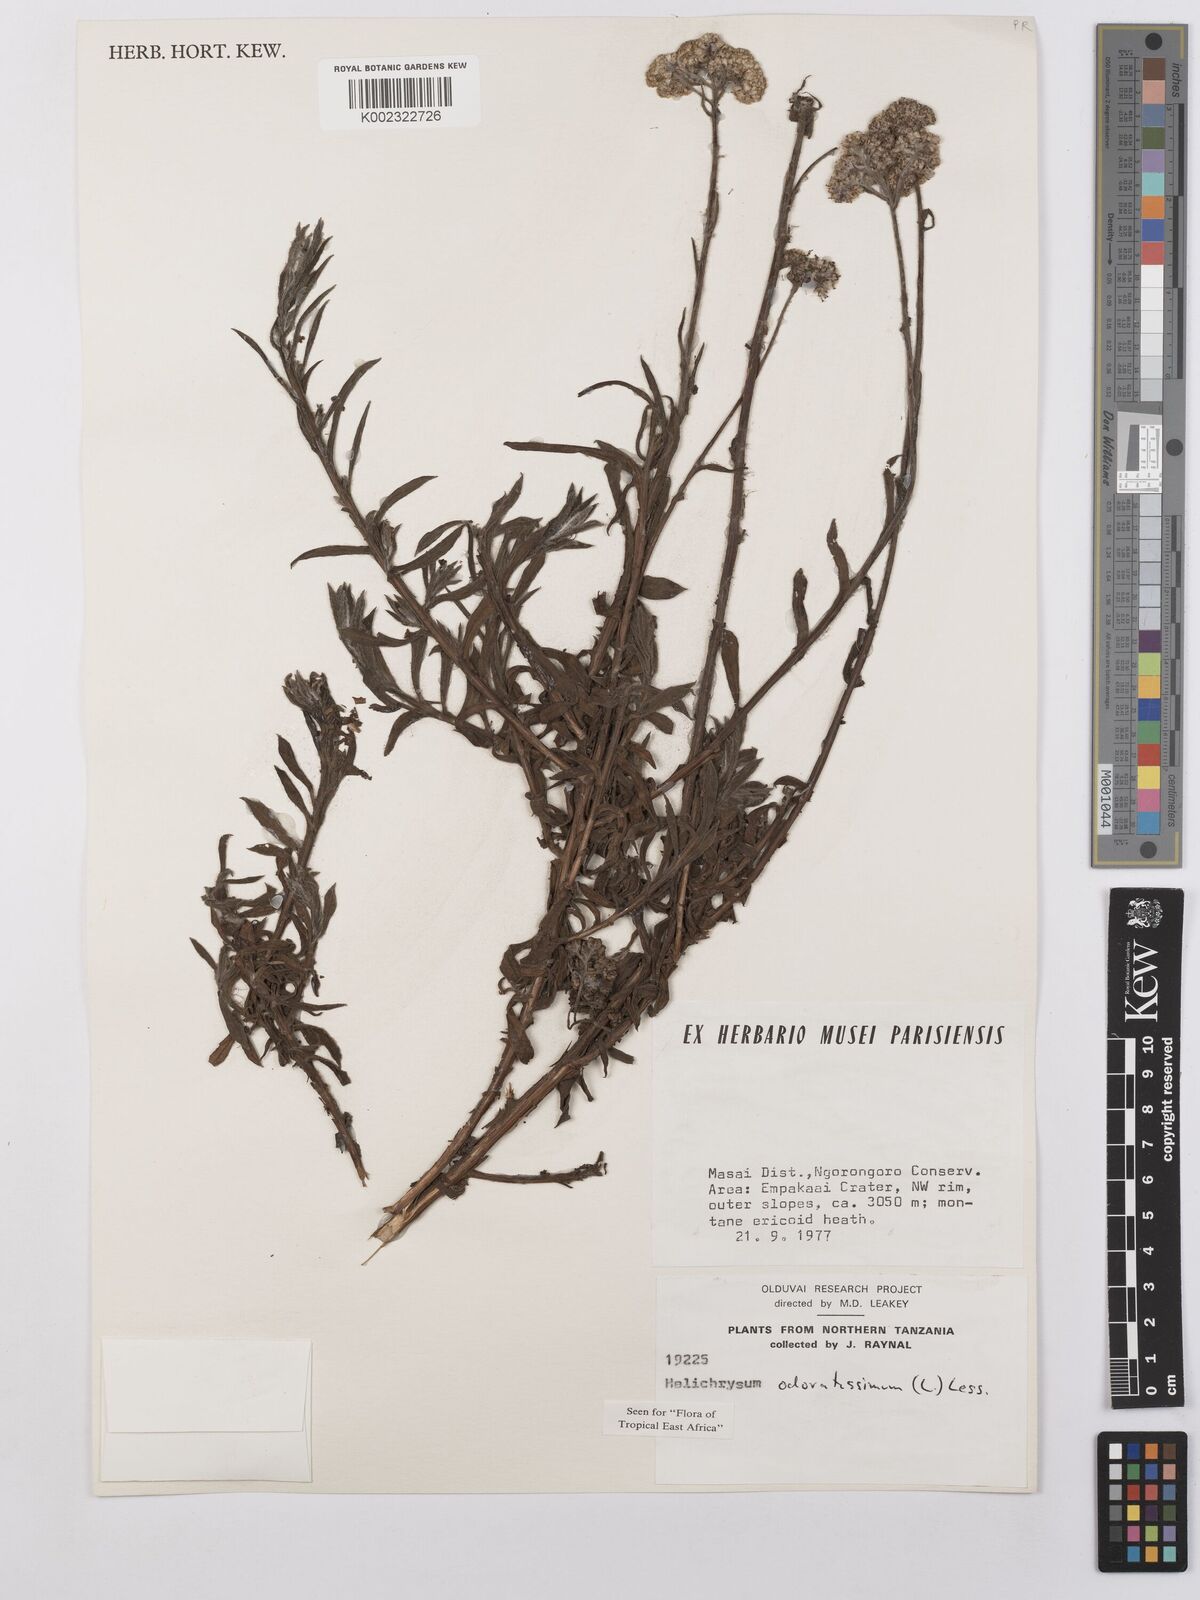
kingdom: Plantae
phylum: Tracheophyta
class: Magnoliopsida
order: Asterales
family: Asteraceae
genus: Helichrysum
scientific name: Helichrysum odoratissimum
